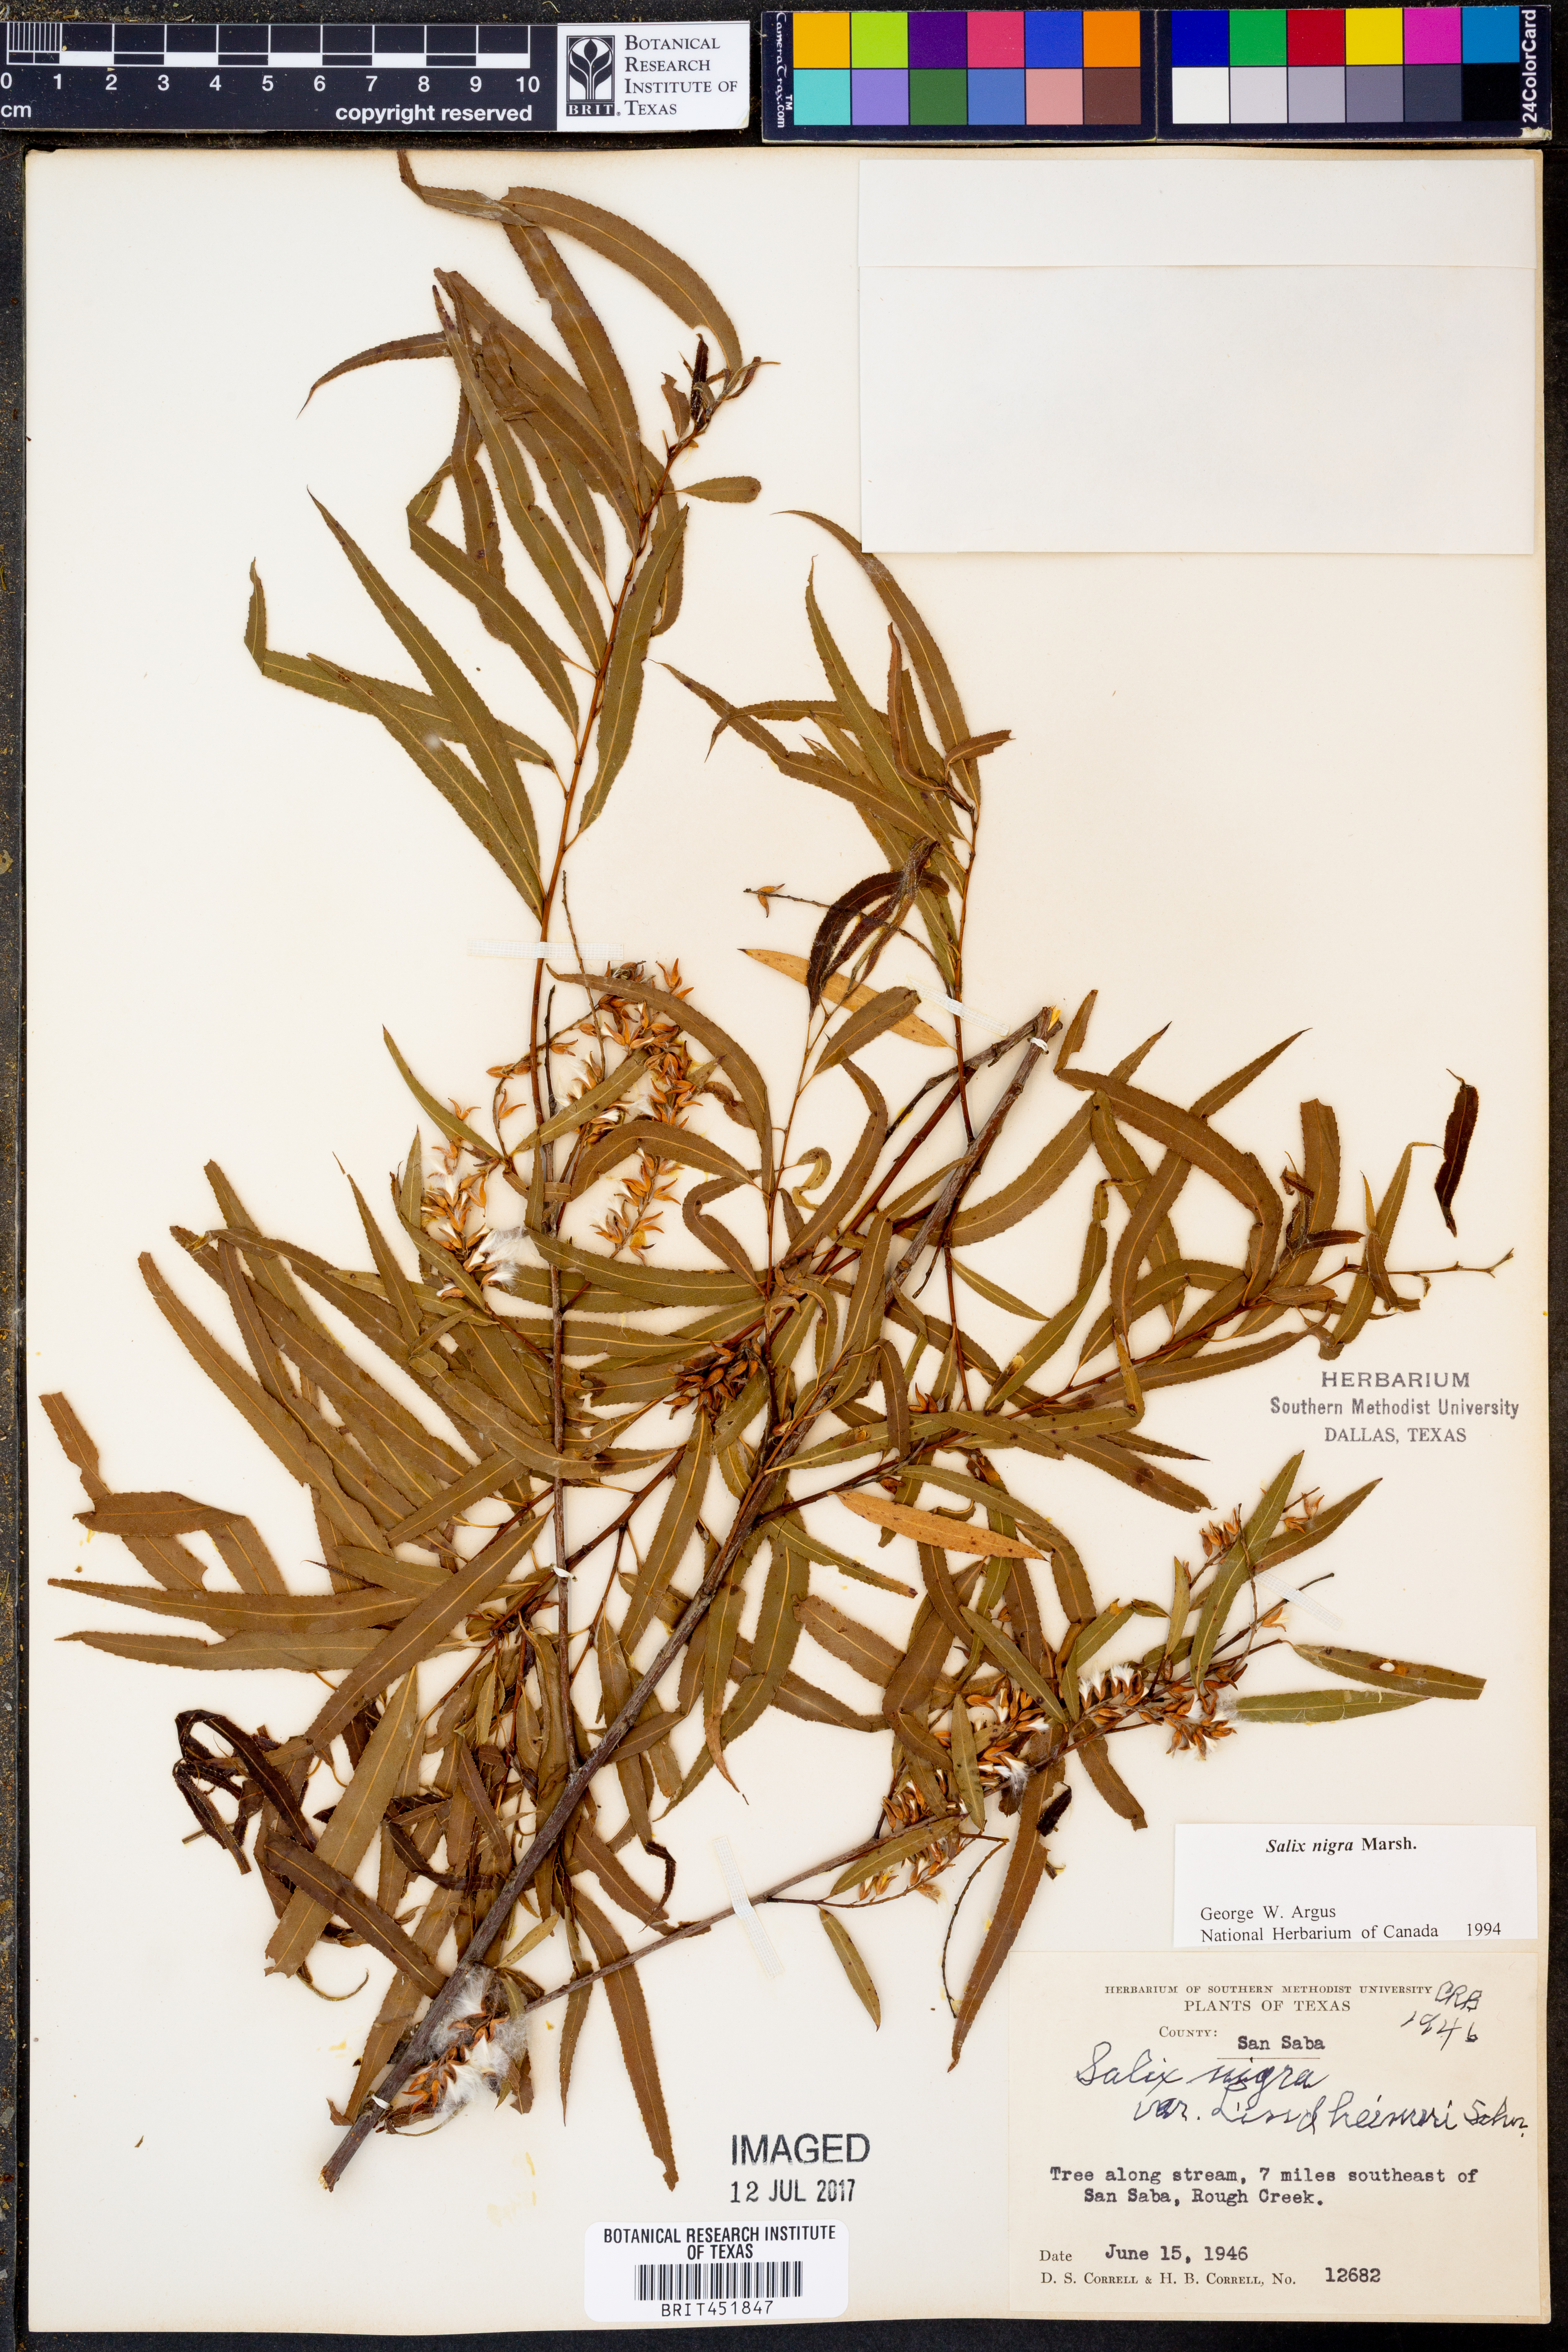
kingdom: Plantae
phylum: Tracheophyta
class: Magnoliopsida
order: Malpighiales
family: Salicaceae
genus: Salix
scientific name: Salix nigra
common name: Black willow
